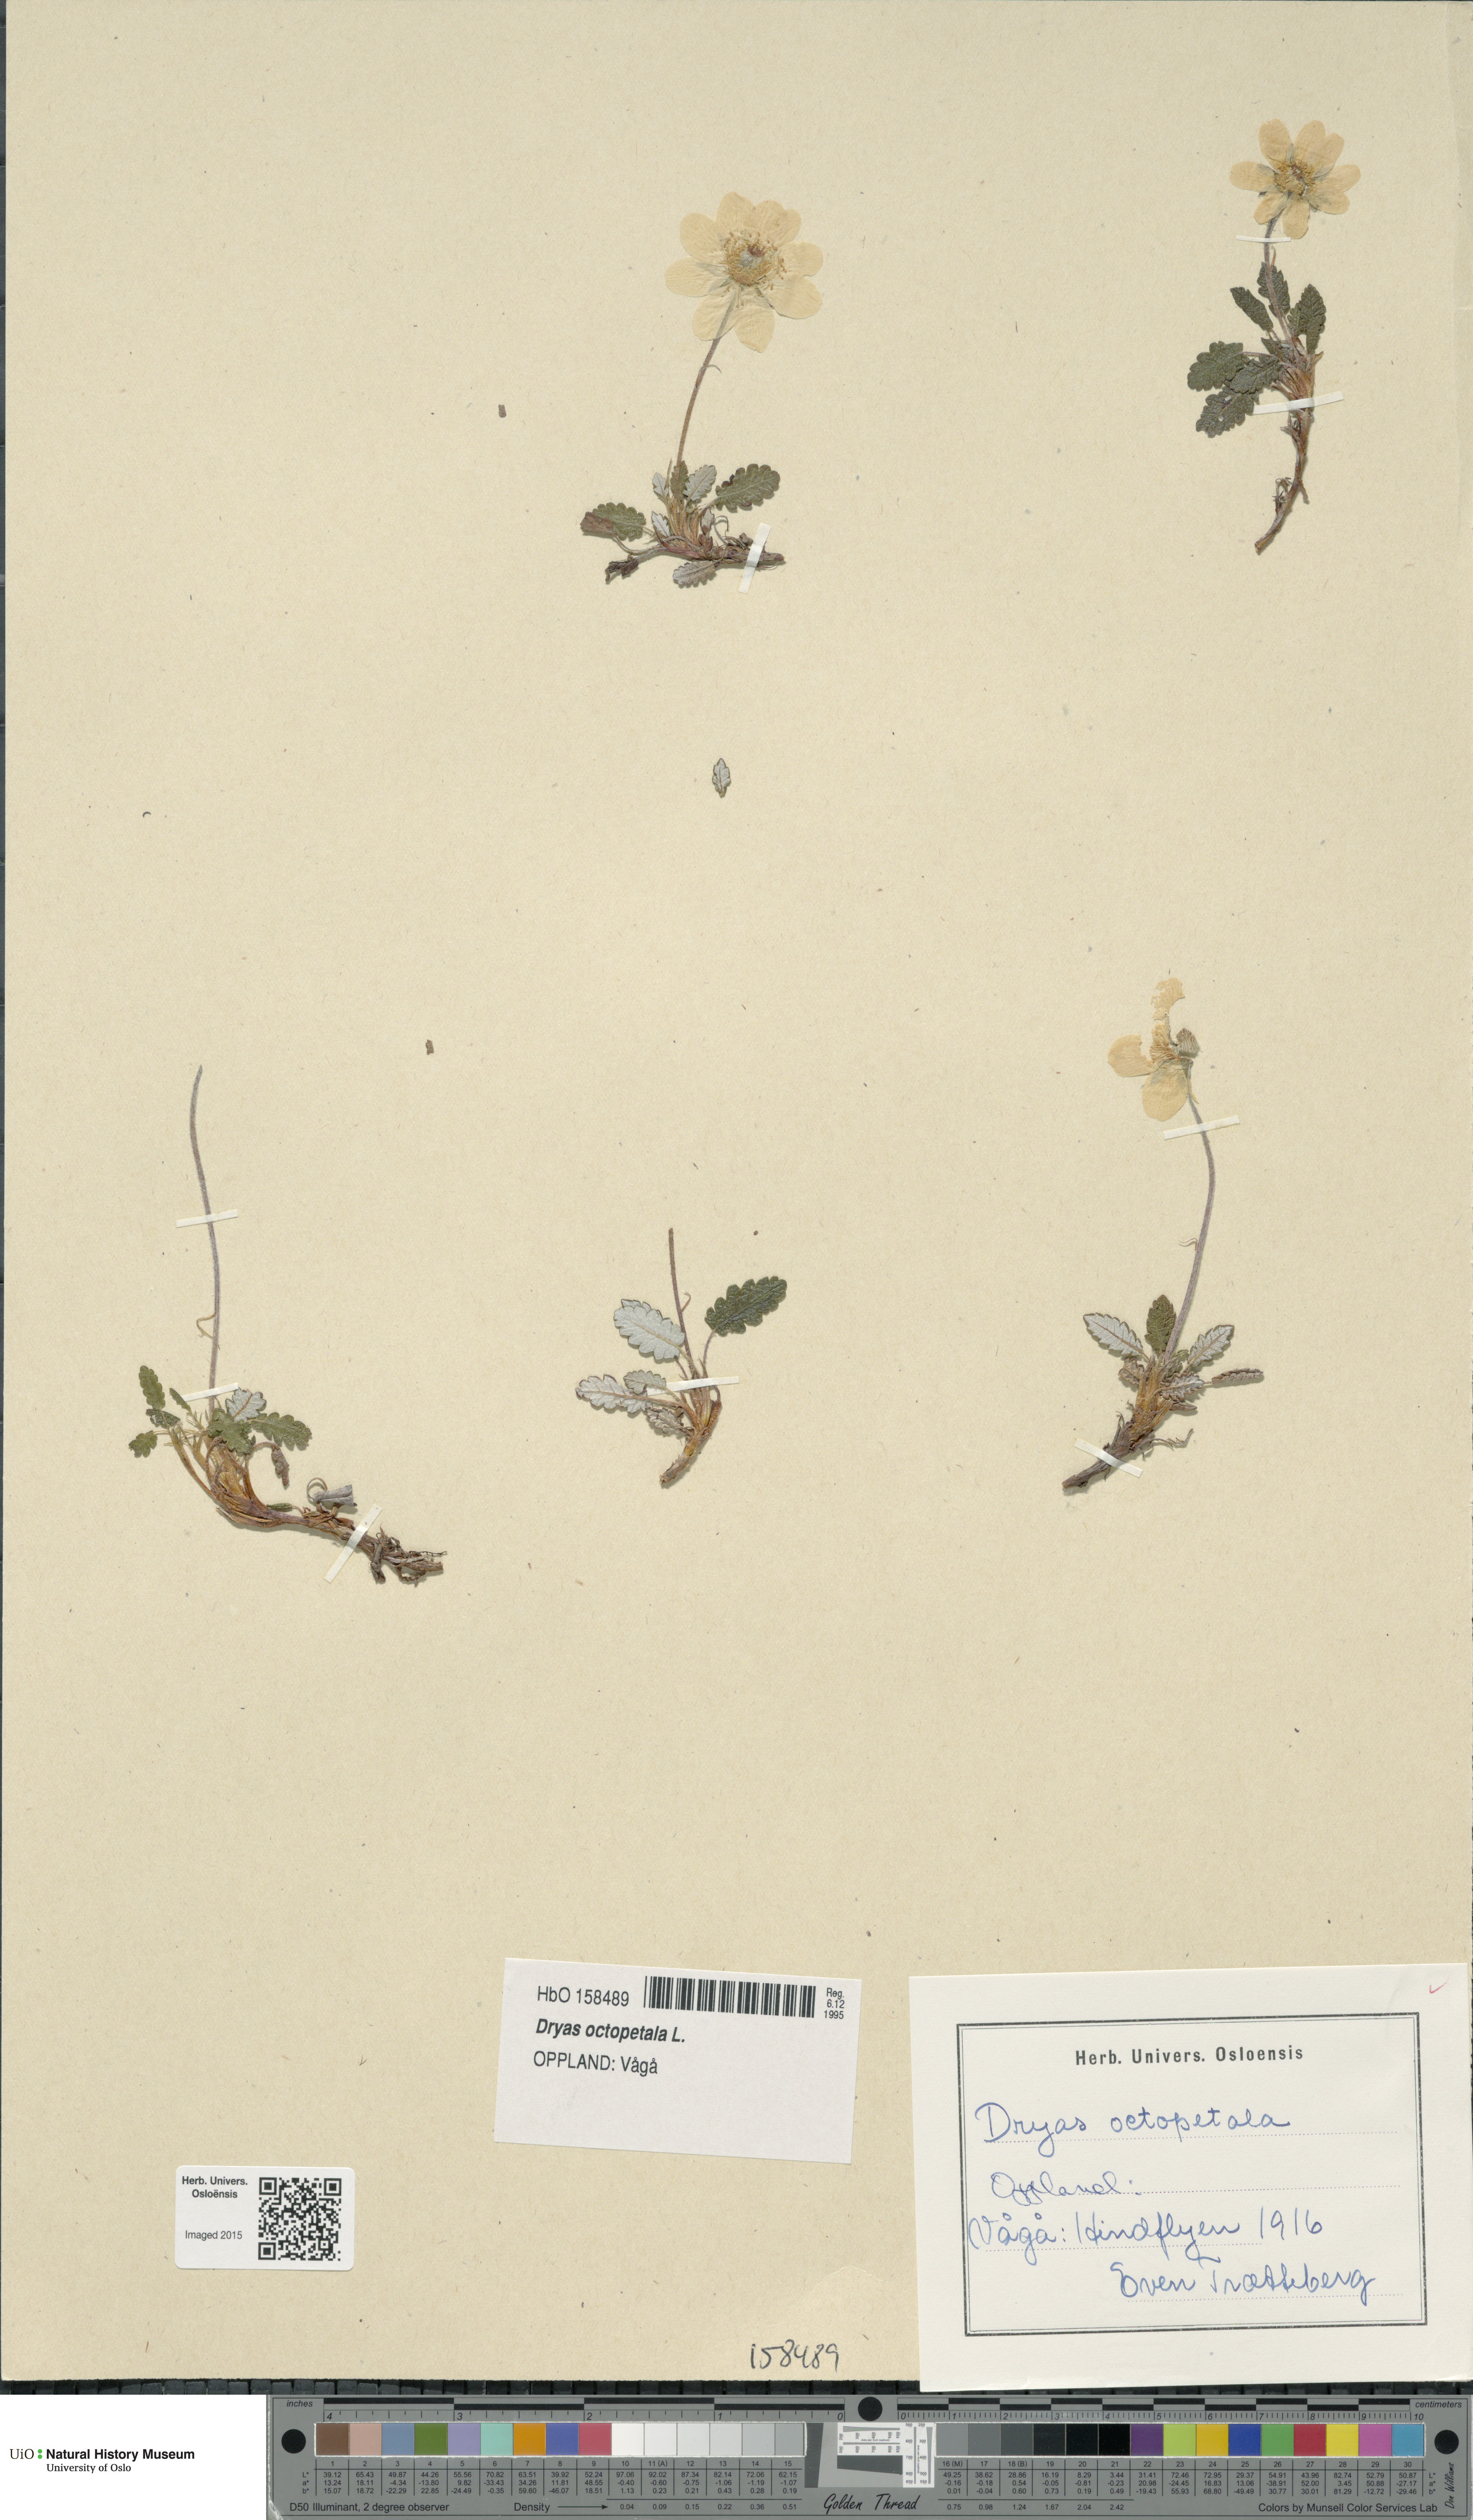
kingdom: Plantae
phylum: Tracheophyta
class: Magnoliopsida
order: Rosales
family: Rosaceae
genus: Dryas
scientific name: Dryas octopetala
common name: Eight-petal mountain-avens
